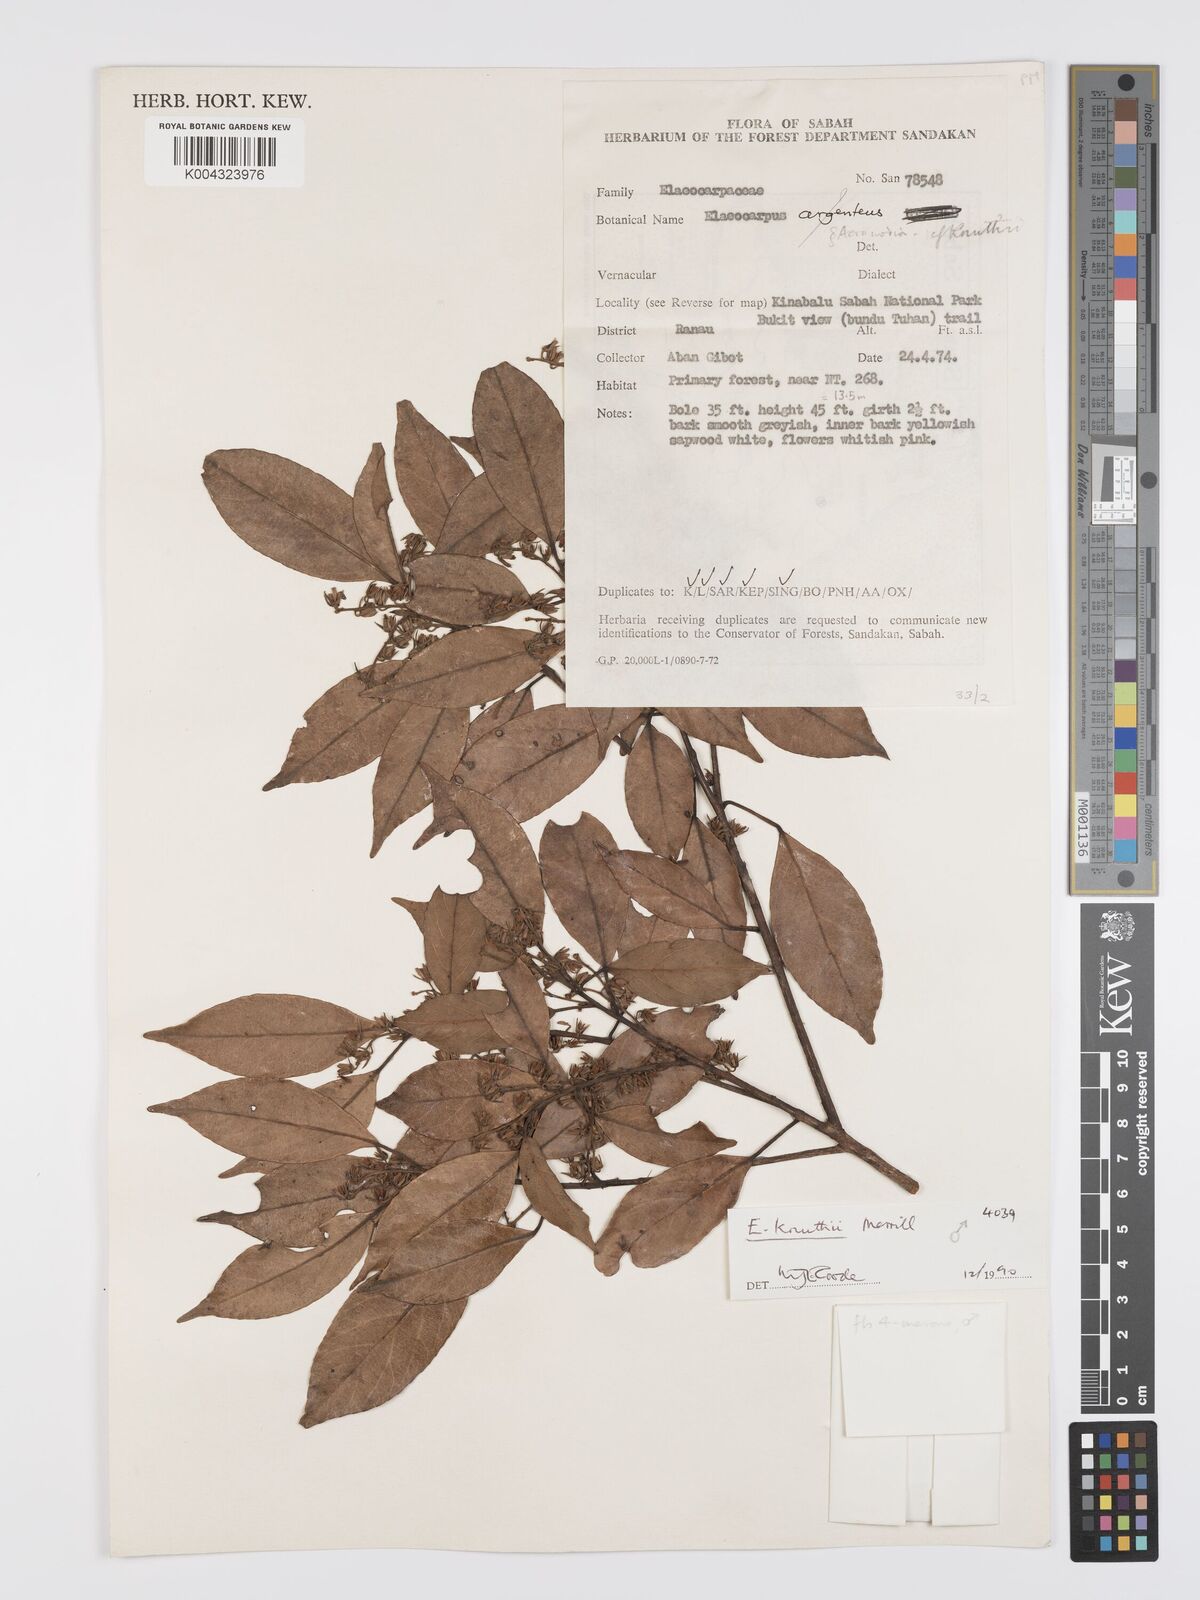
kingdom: Plantae
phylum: Tracheophyta
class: Magnoliopsida
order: Oxalidales
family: Elaeocarpaceae
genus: Elaeocarpus
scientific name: Elaeocarpus knuthii
